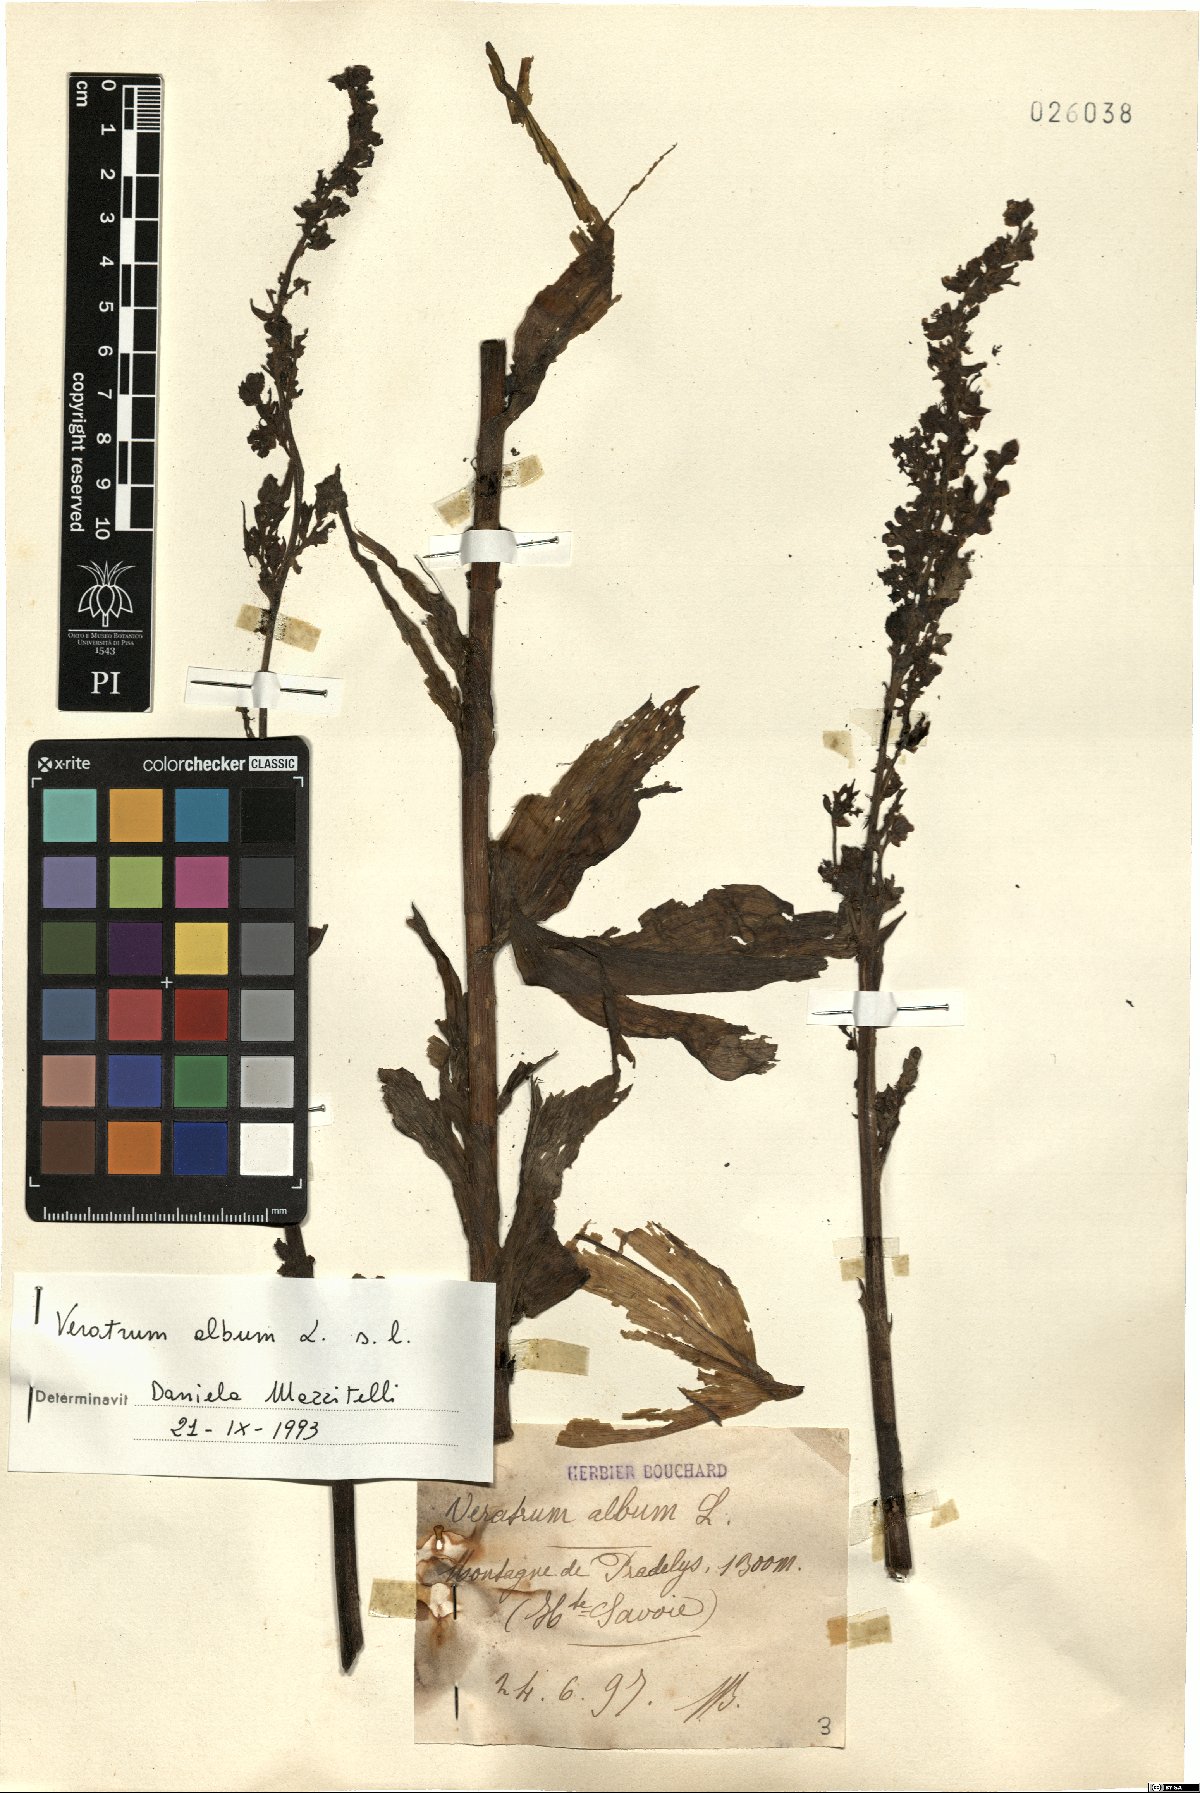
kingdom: Plantae
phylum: Tracheophyta
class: Liliopsida
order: Liliales
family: Melanthiaceae
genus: Veratrum
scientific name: Veratrum album
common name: White veratrum
